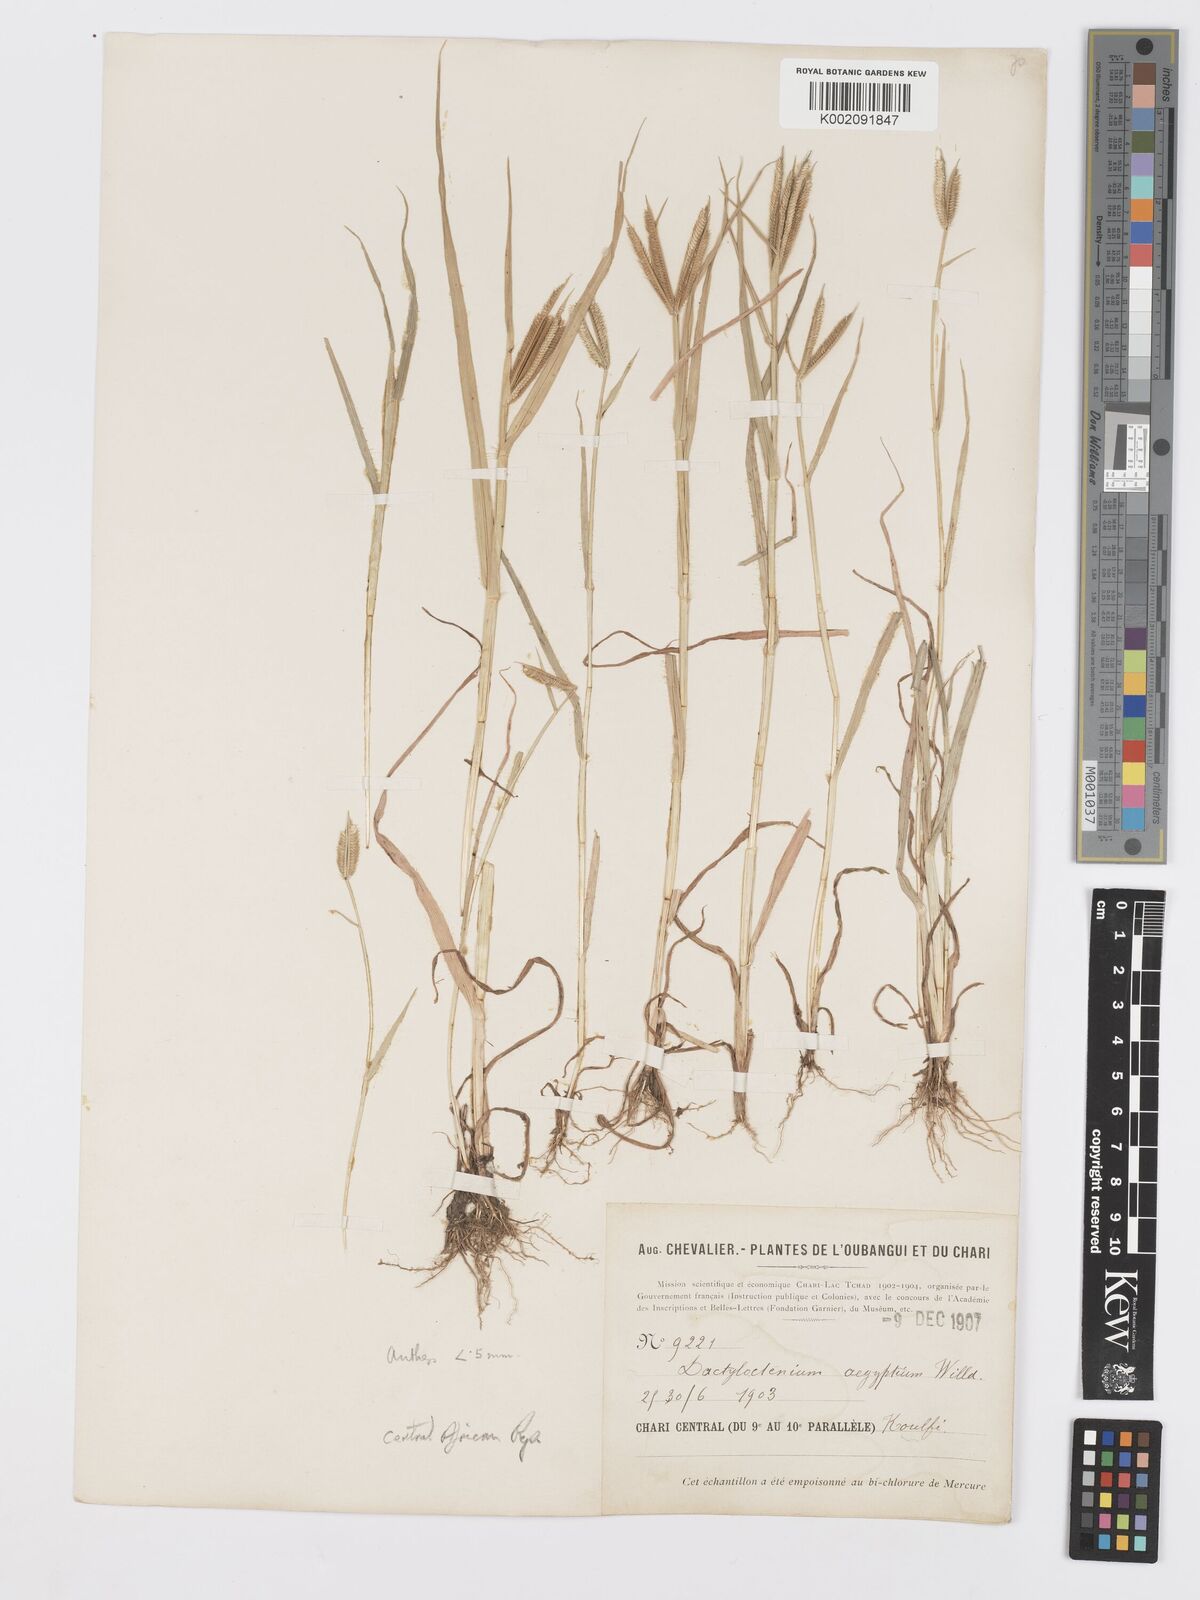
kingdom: Plantae
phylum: Tracheophyta
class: Liliopsida
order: Poales
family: Poaceae
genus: Dactyloctenium
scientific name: Dactyloctenium aegyptium
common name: Egyptian grass
